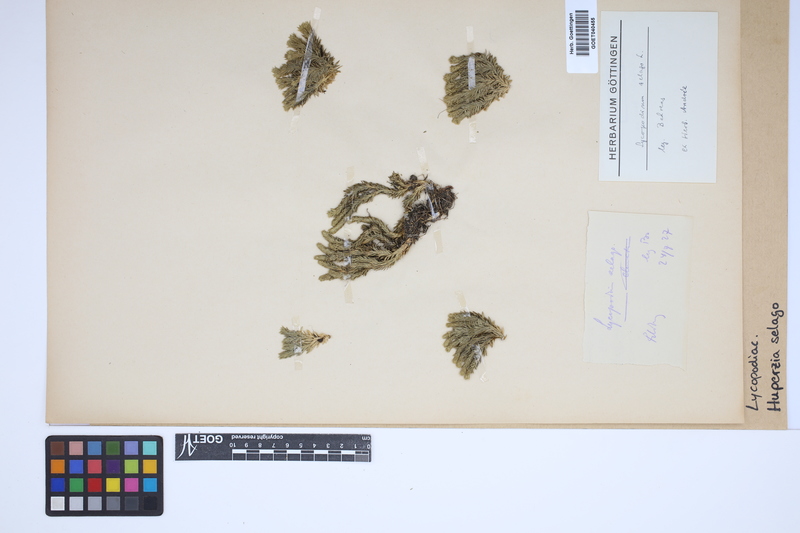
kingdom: Plantae
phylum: Tracheophyta
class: Lycopodiopsida
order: Lycopodiales
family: Lycopodiaceae
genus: Huperzia
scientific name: Huperzia selago
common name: Northern firmoss
